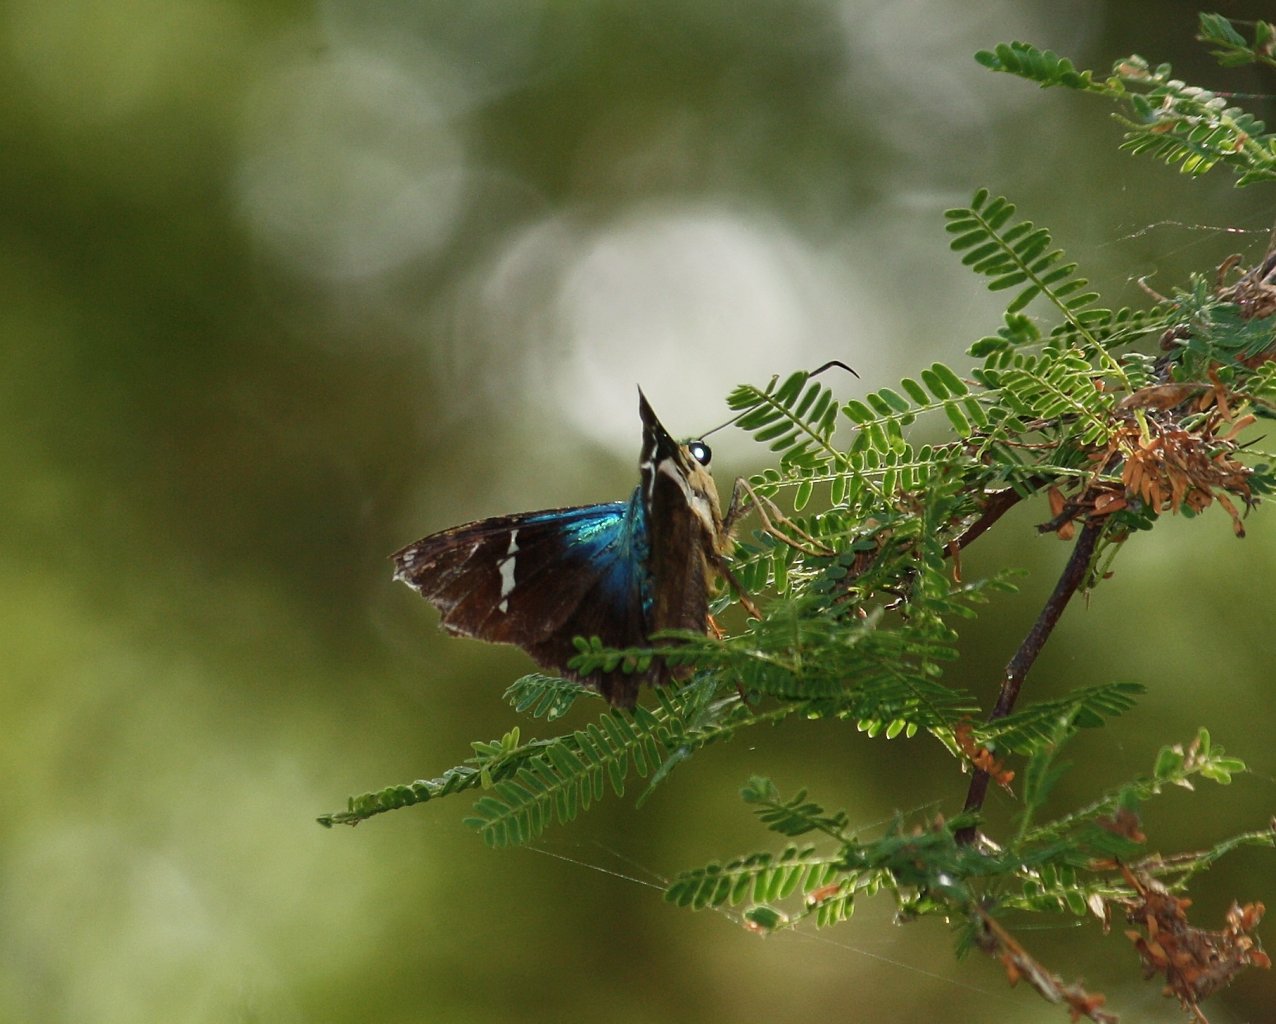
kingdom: Animalia
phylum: Arthropoda
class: Insecta
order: Lepidoptera
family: Hesperiidae
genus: Astraptes
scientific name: Astraptes fulgerator
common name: Two-barred Flasher
